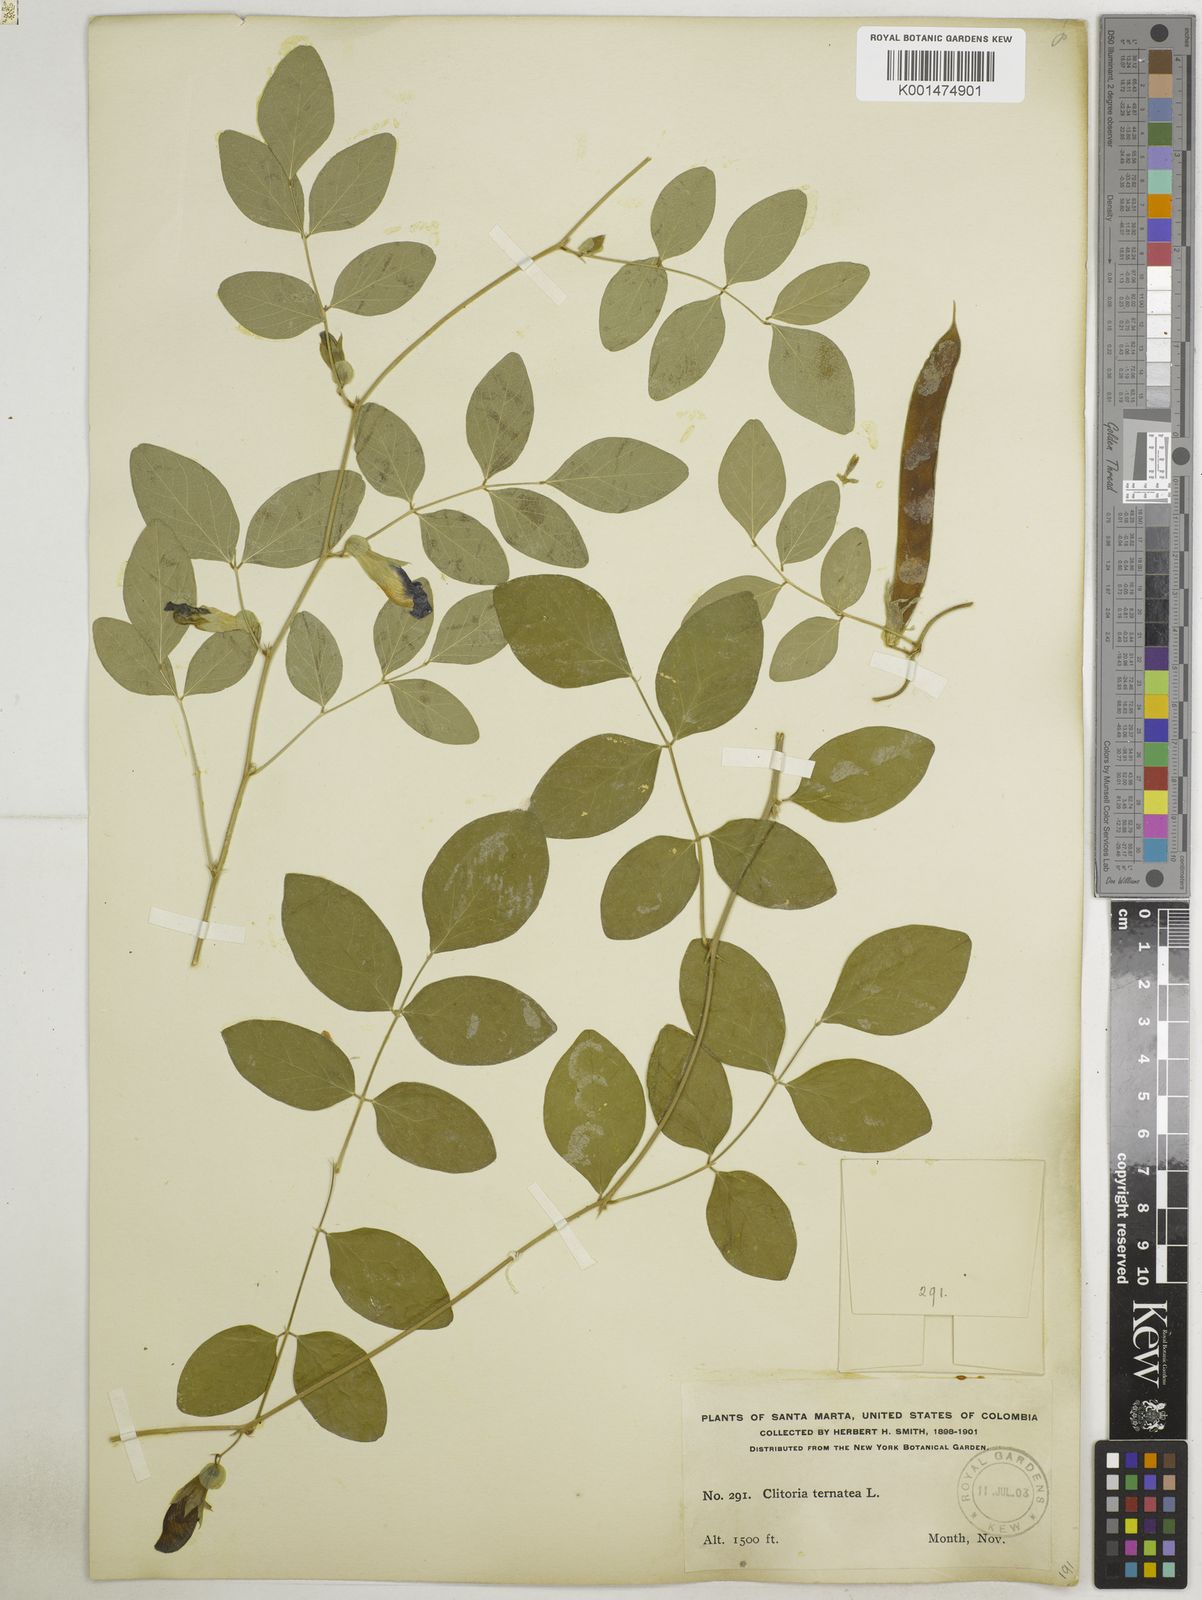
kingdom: Plantae
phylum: Tracheophyta
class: Magnoliopsida
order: Fabales
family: Fabaceae
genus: Clitoria
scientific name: Clitoria ternatea
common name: Asian pigeonwings
